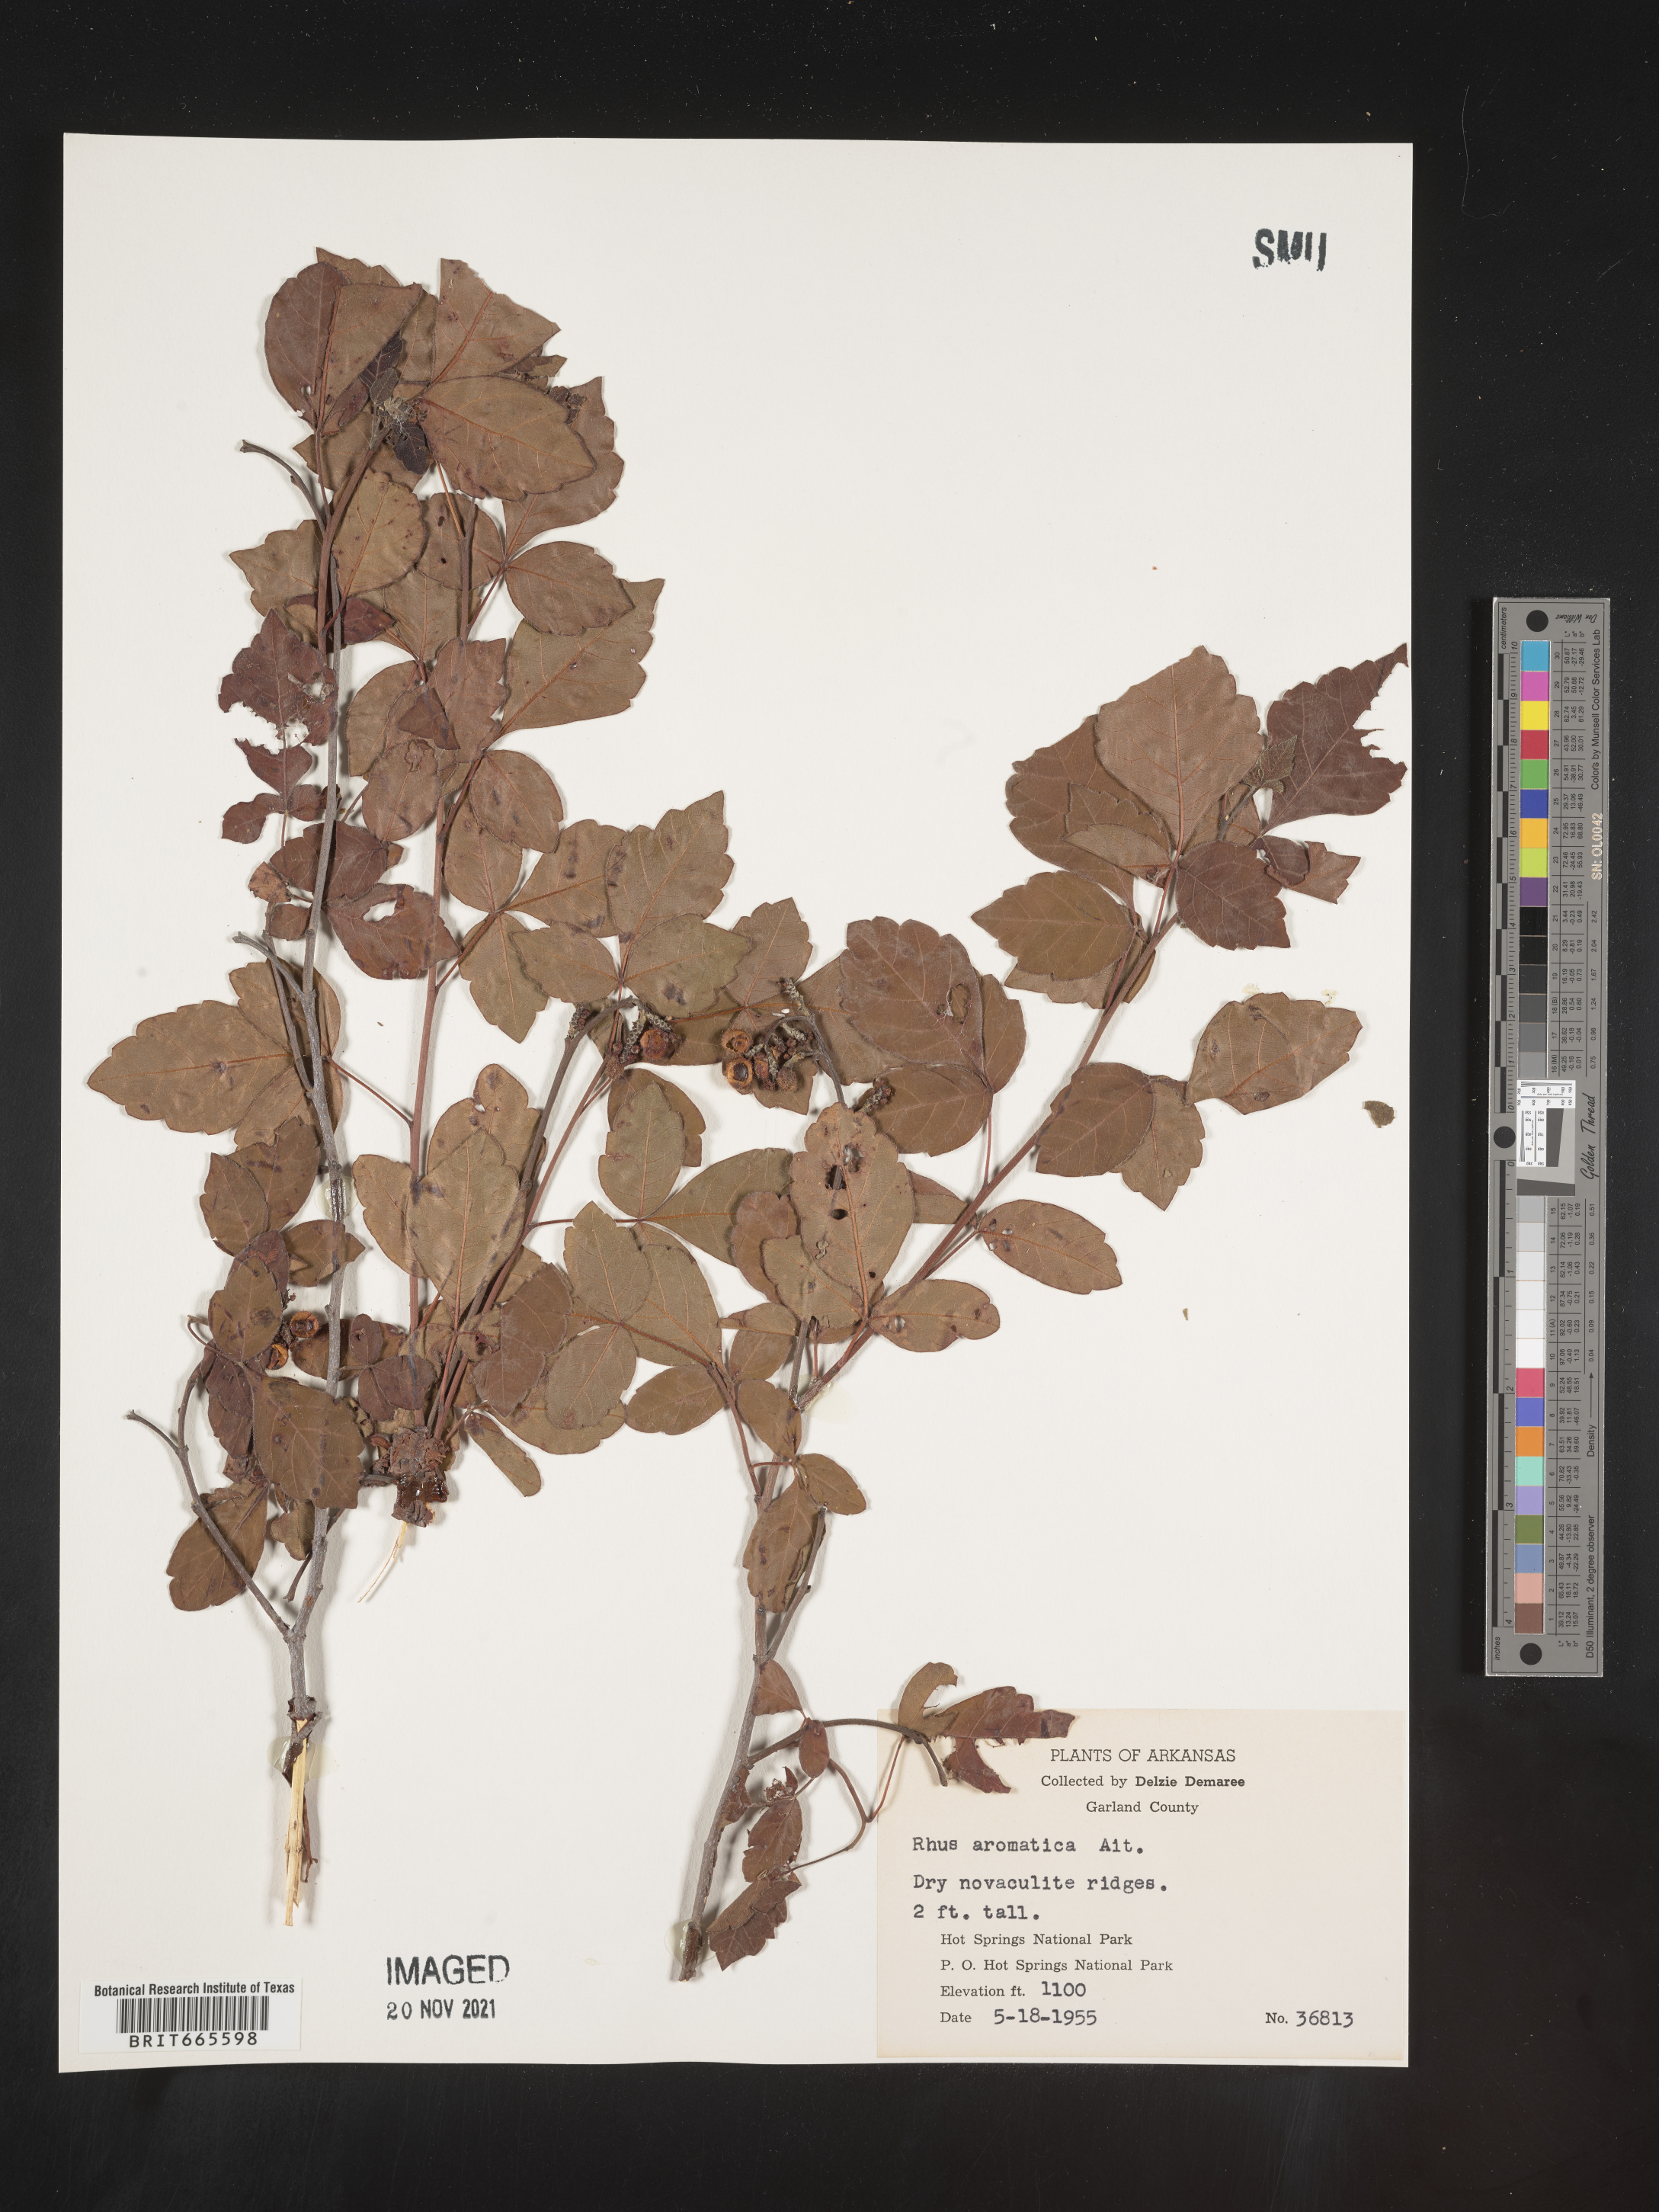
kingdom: Plantae
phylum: Tracheophyta
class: Magnoliopsida
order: Sapindales
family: Anacardiaceae
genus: Rhus
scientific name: Rhus aromatica
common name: Aromatic sumac
